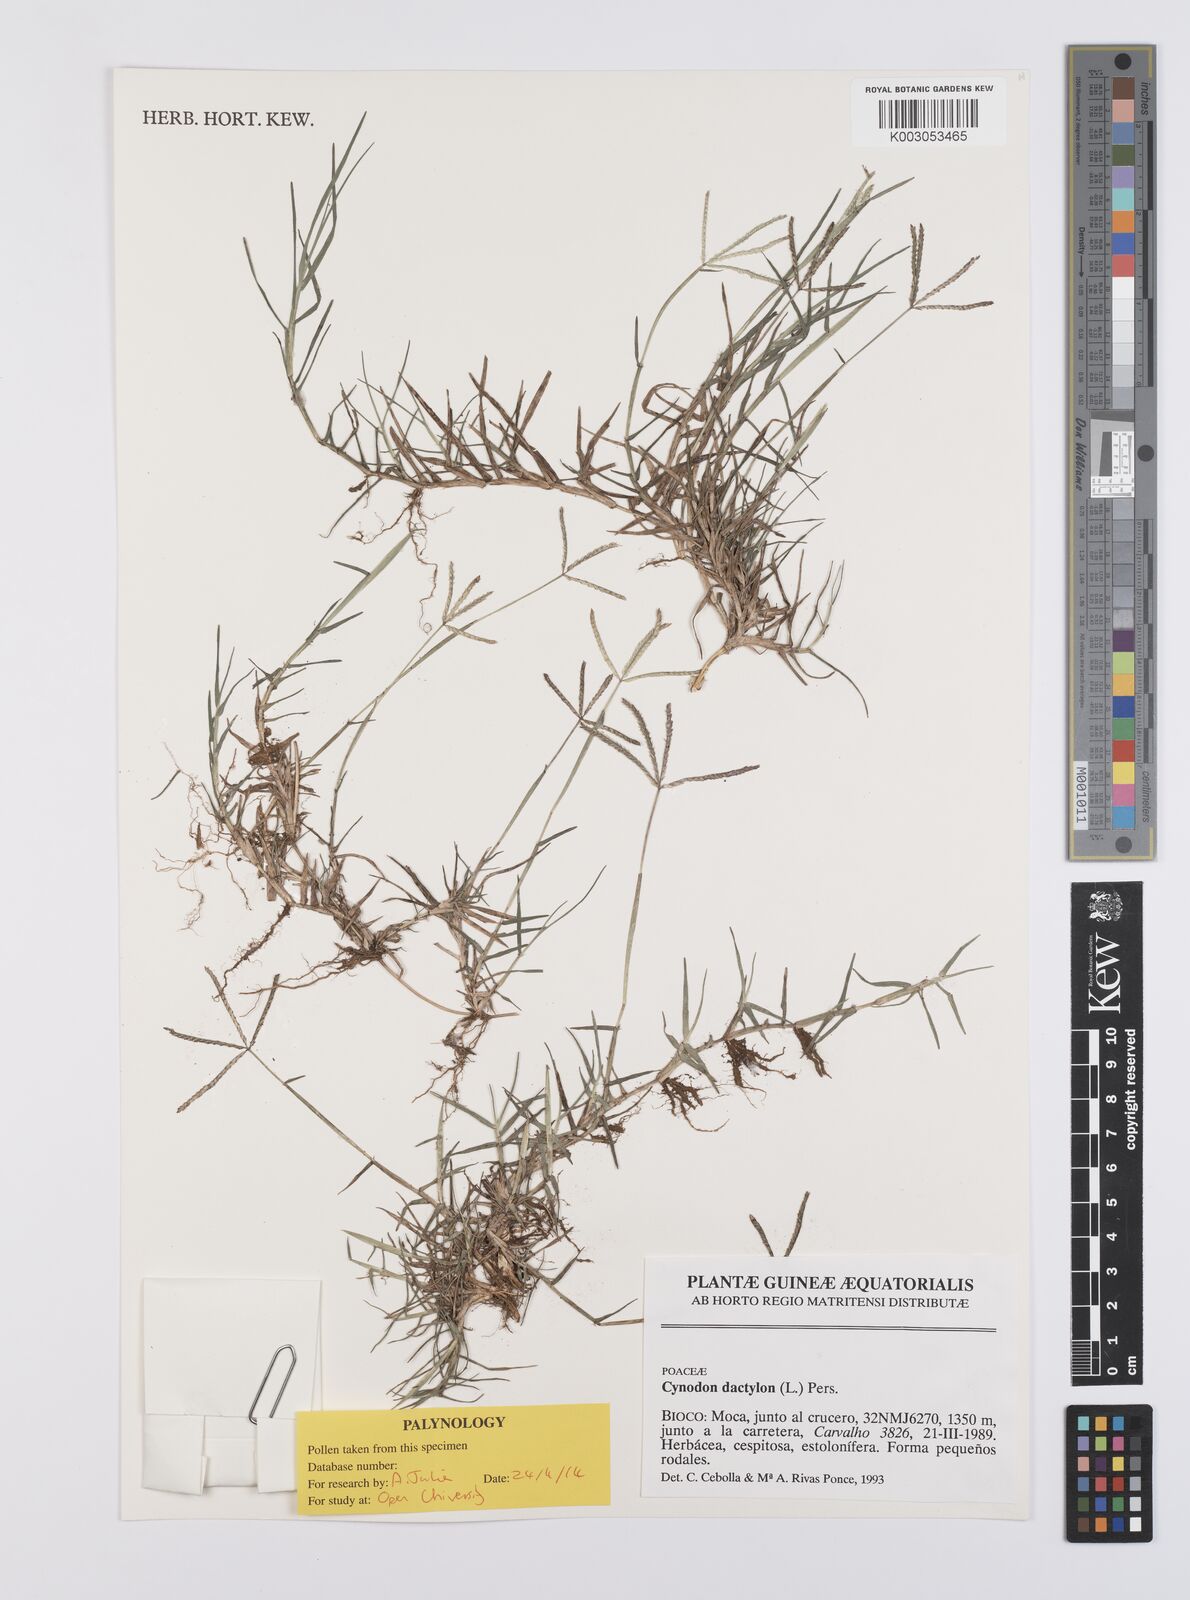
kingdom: Plantae
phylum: Tracheophyta
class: Liliopsida
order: Poales
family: Poaceae
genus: Cynodon
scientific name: Cynodon dactylon
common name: Bermuda grass
